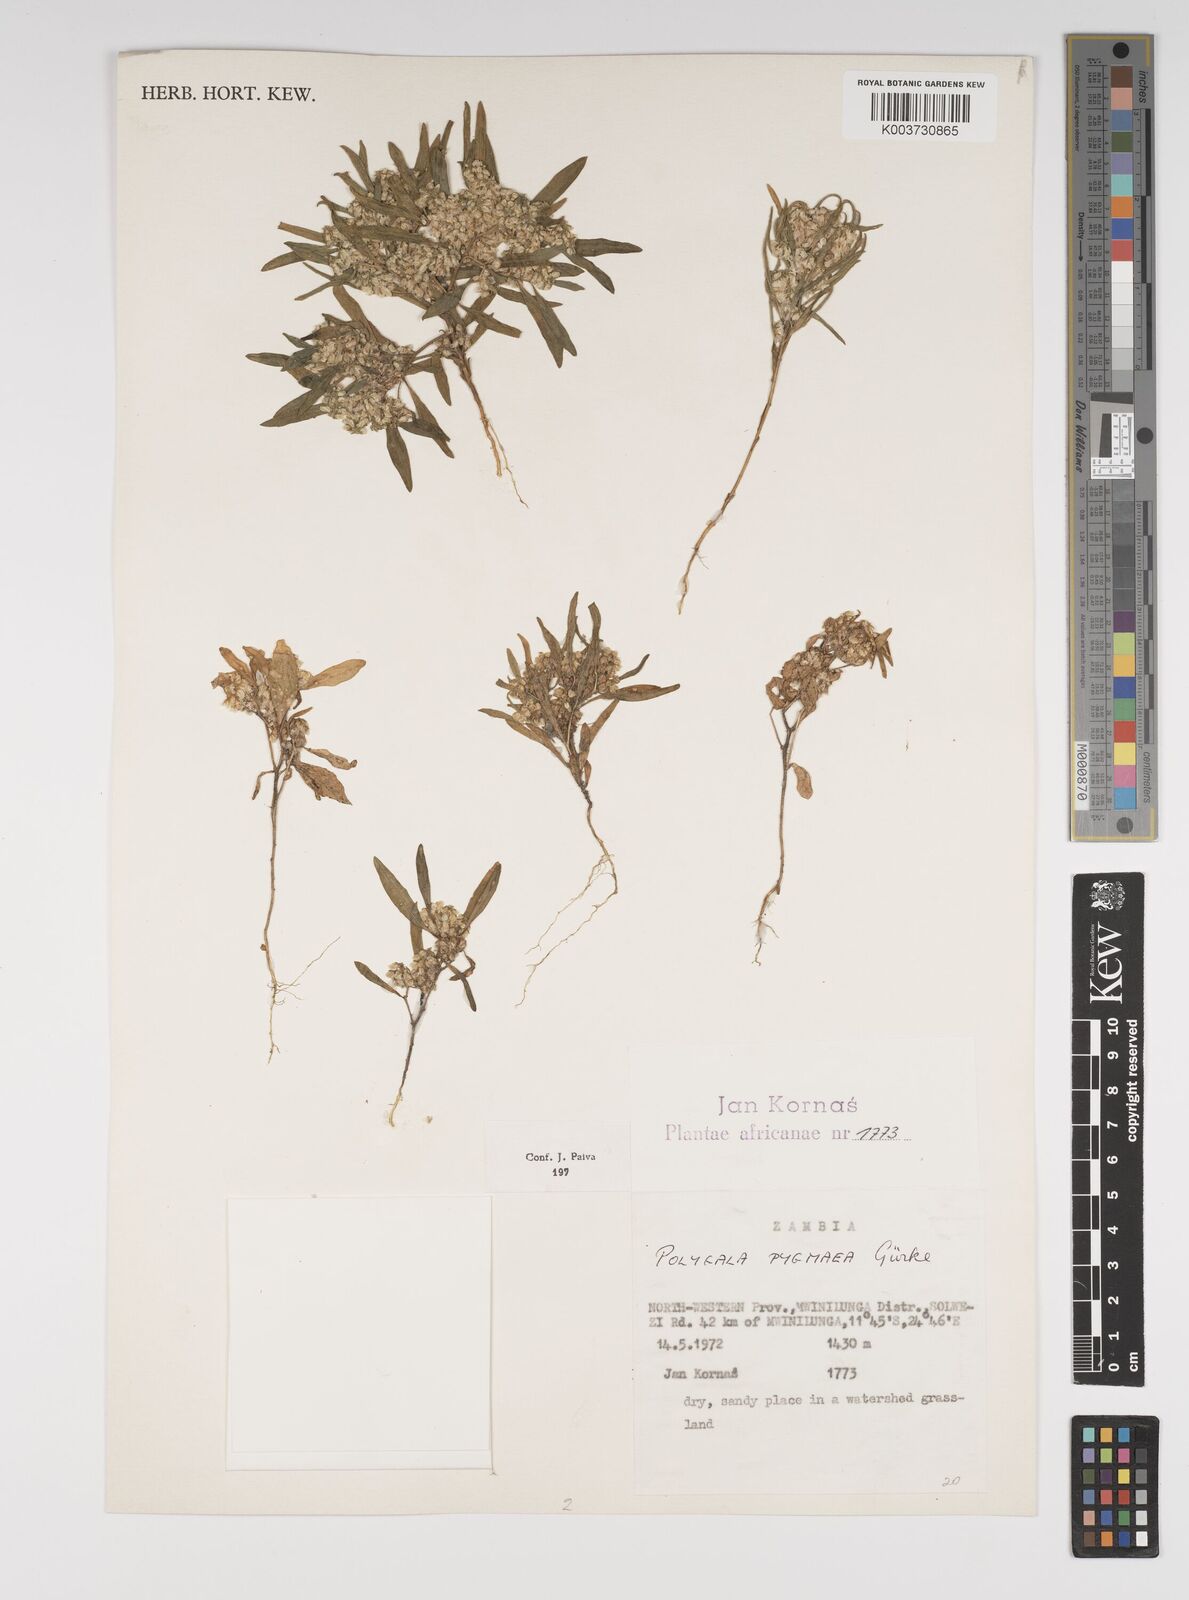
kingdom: Plantae
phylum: Tracheophyta
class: Magnoliopsida
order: Fabales
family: Polygalaceae
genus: Polygala
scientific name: Polygala welwitschii
